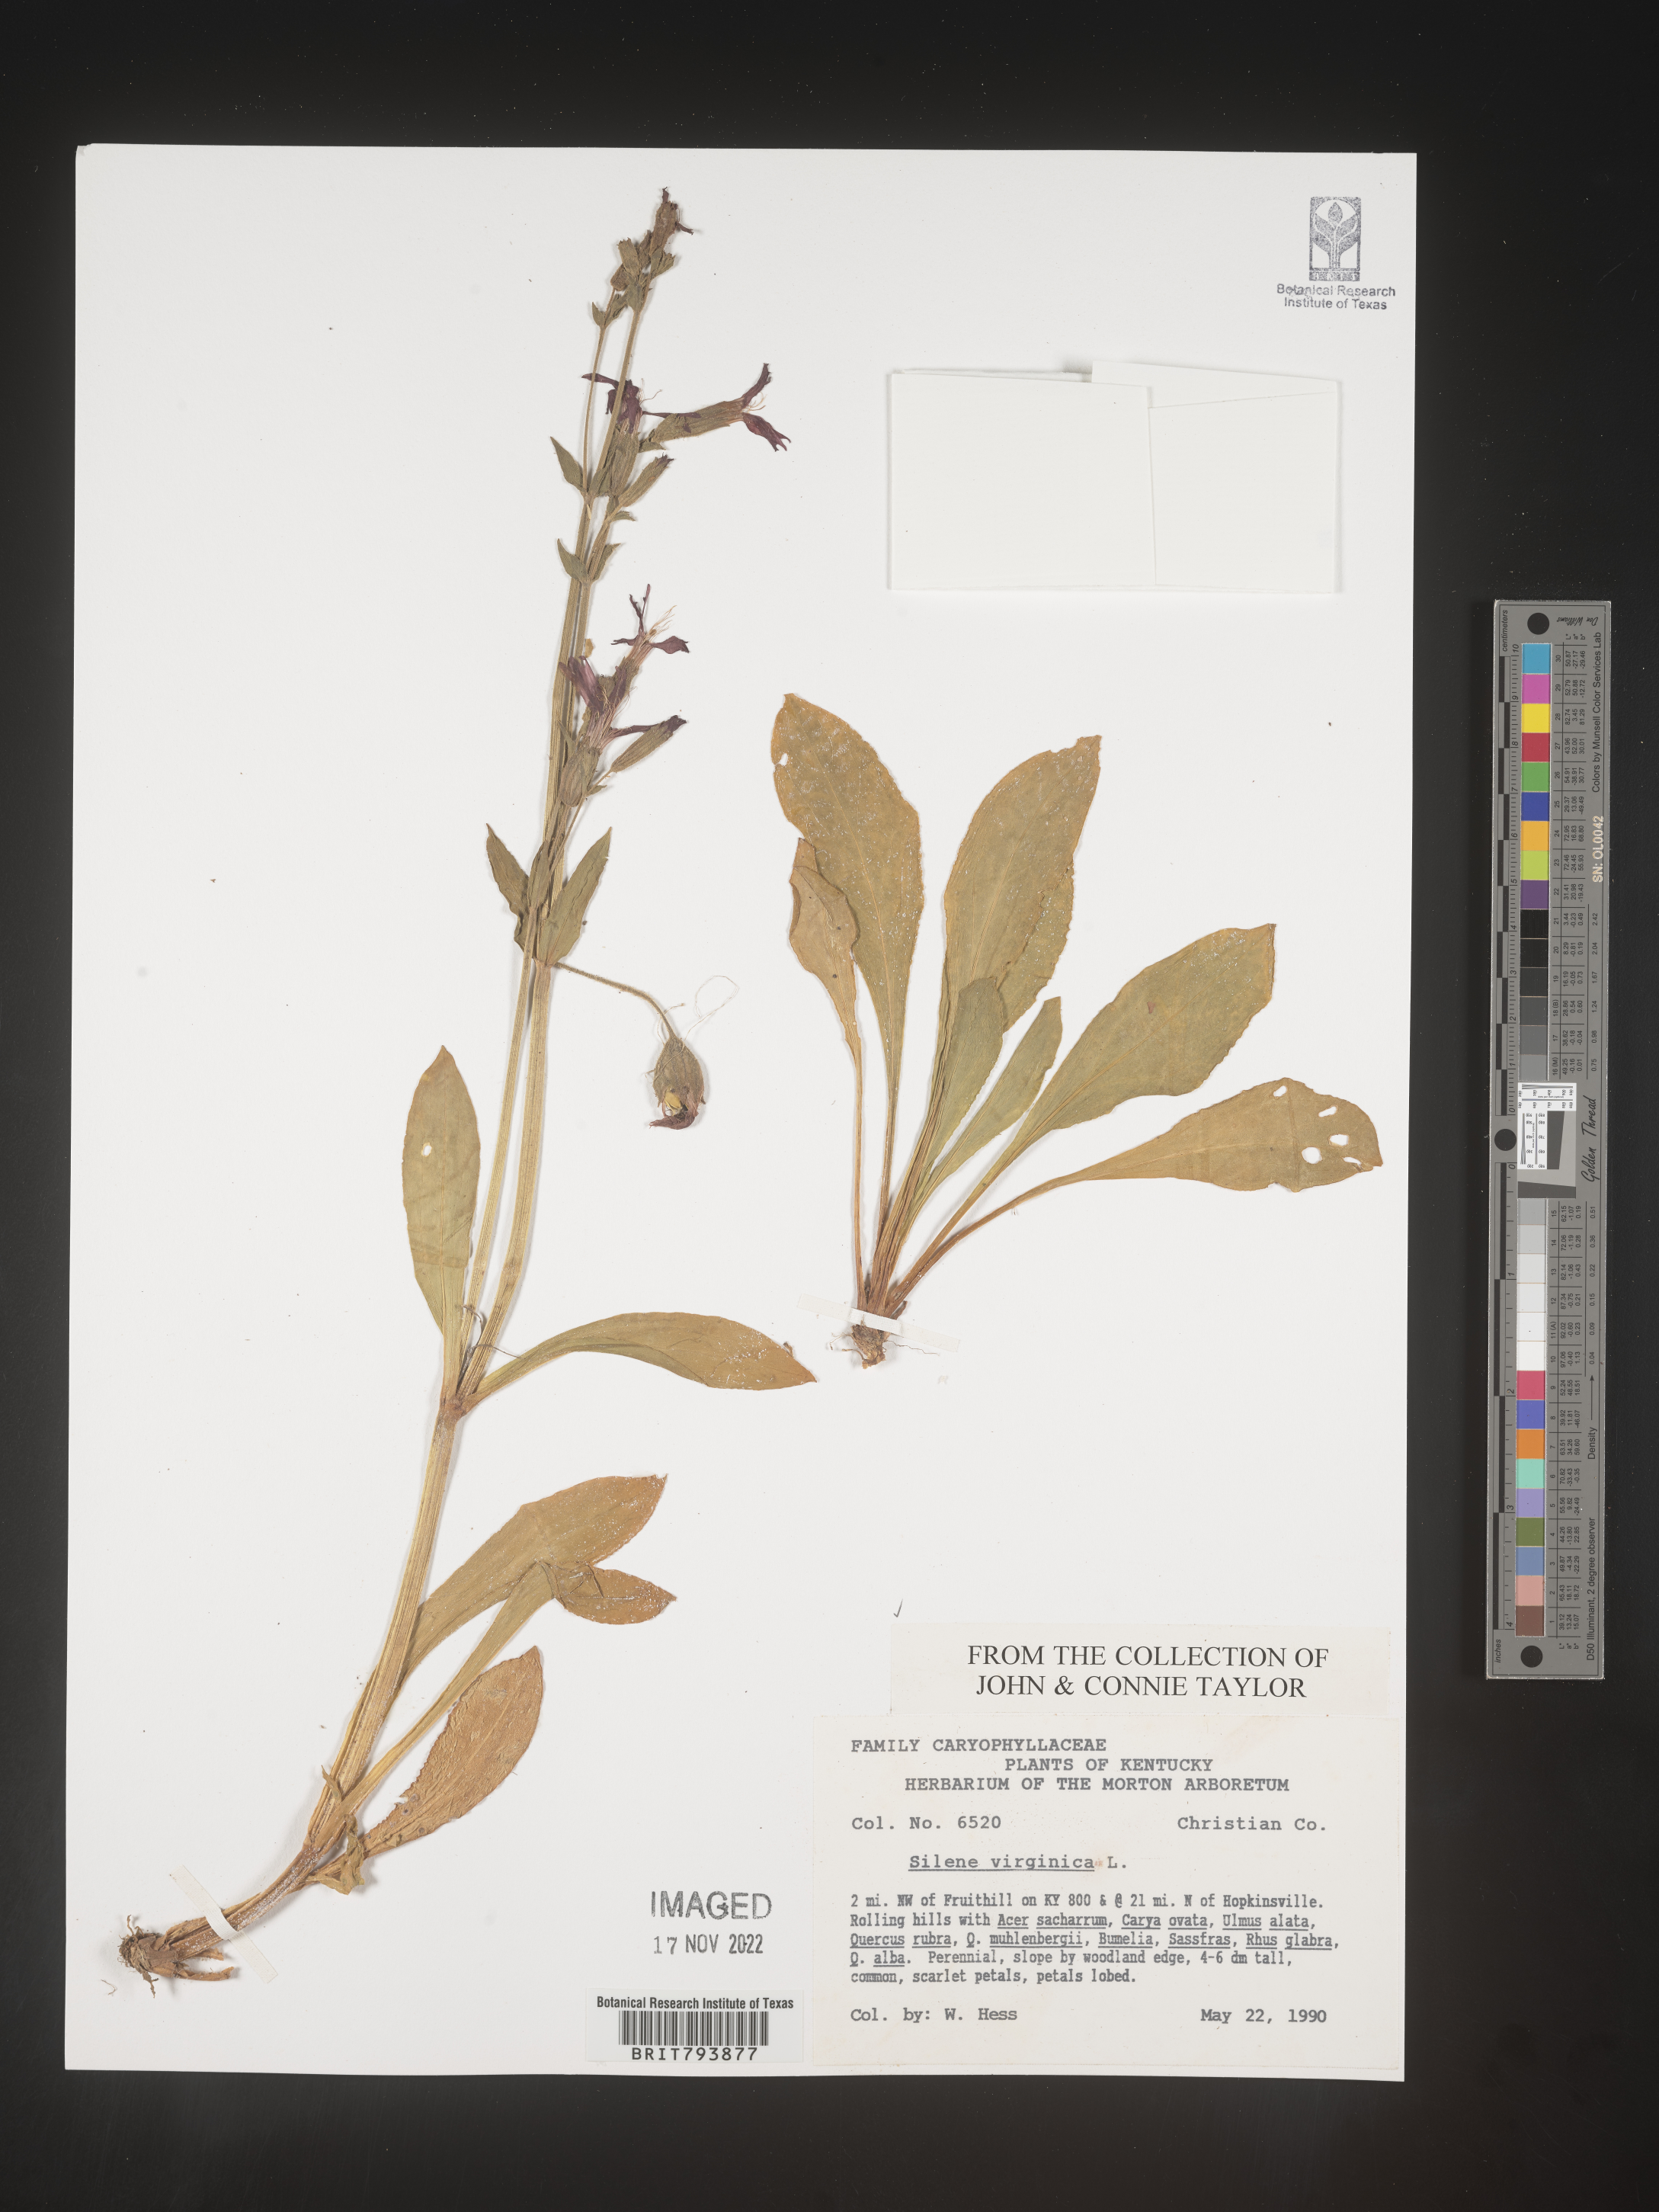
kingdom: Plantae
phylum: Tracheophyta
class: Magnoliopsida
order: Caryophyllales
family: Caryophyllaceae
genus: Silene
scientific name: Silene virginica
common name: Fire-pink
